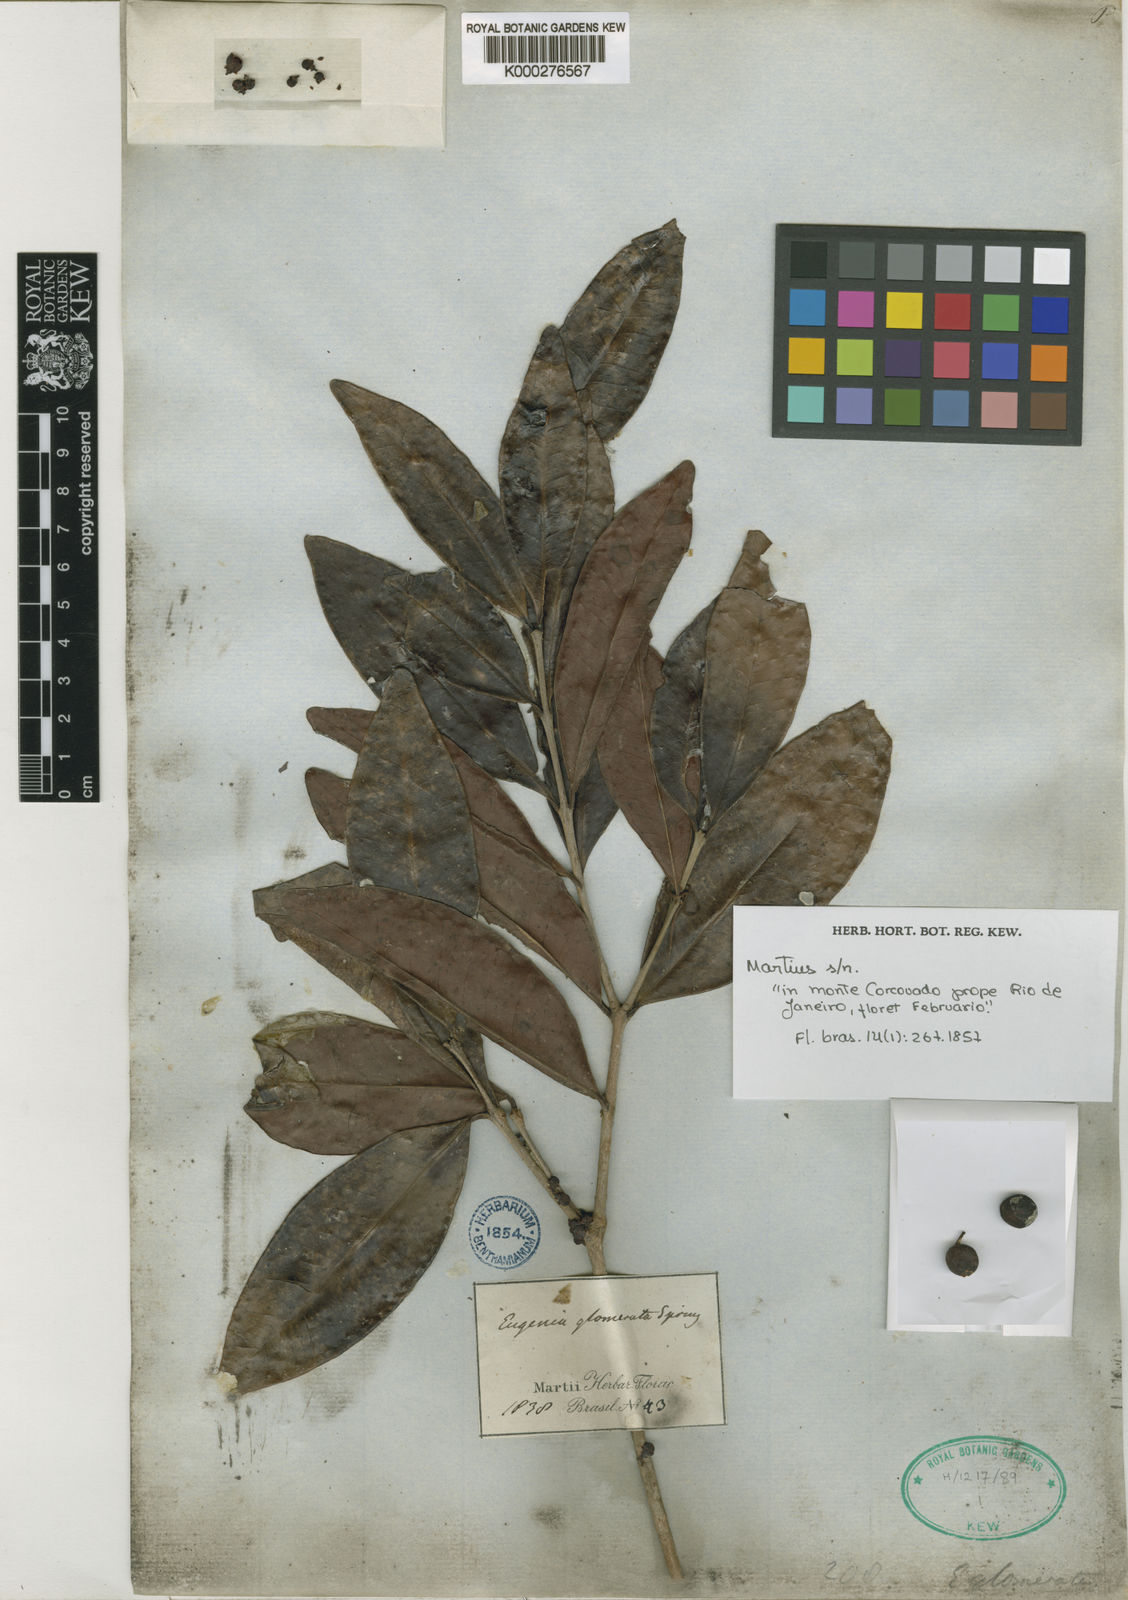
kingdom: Plantae
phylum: Tracheophyta
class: Magnoliopsida
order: Myrtales
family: Myrtaceae
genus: Eugenia
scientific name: Eugenia neoglomerata
